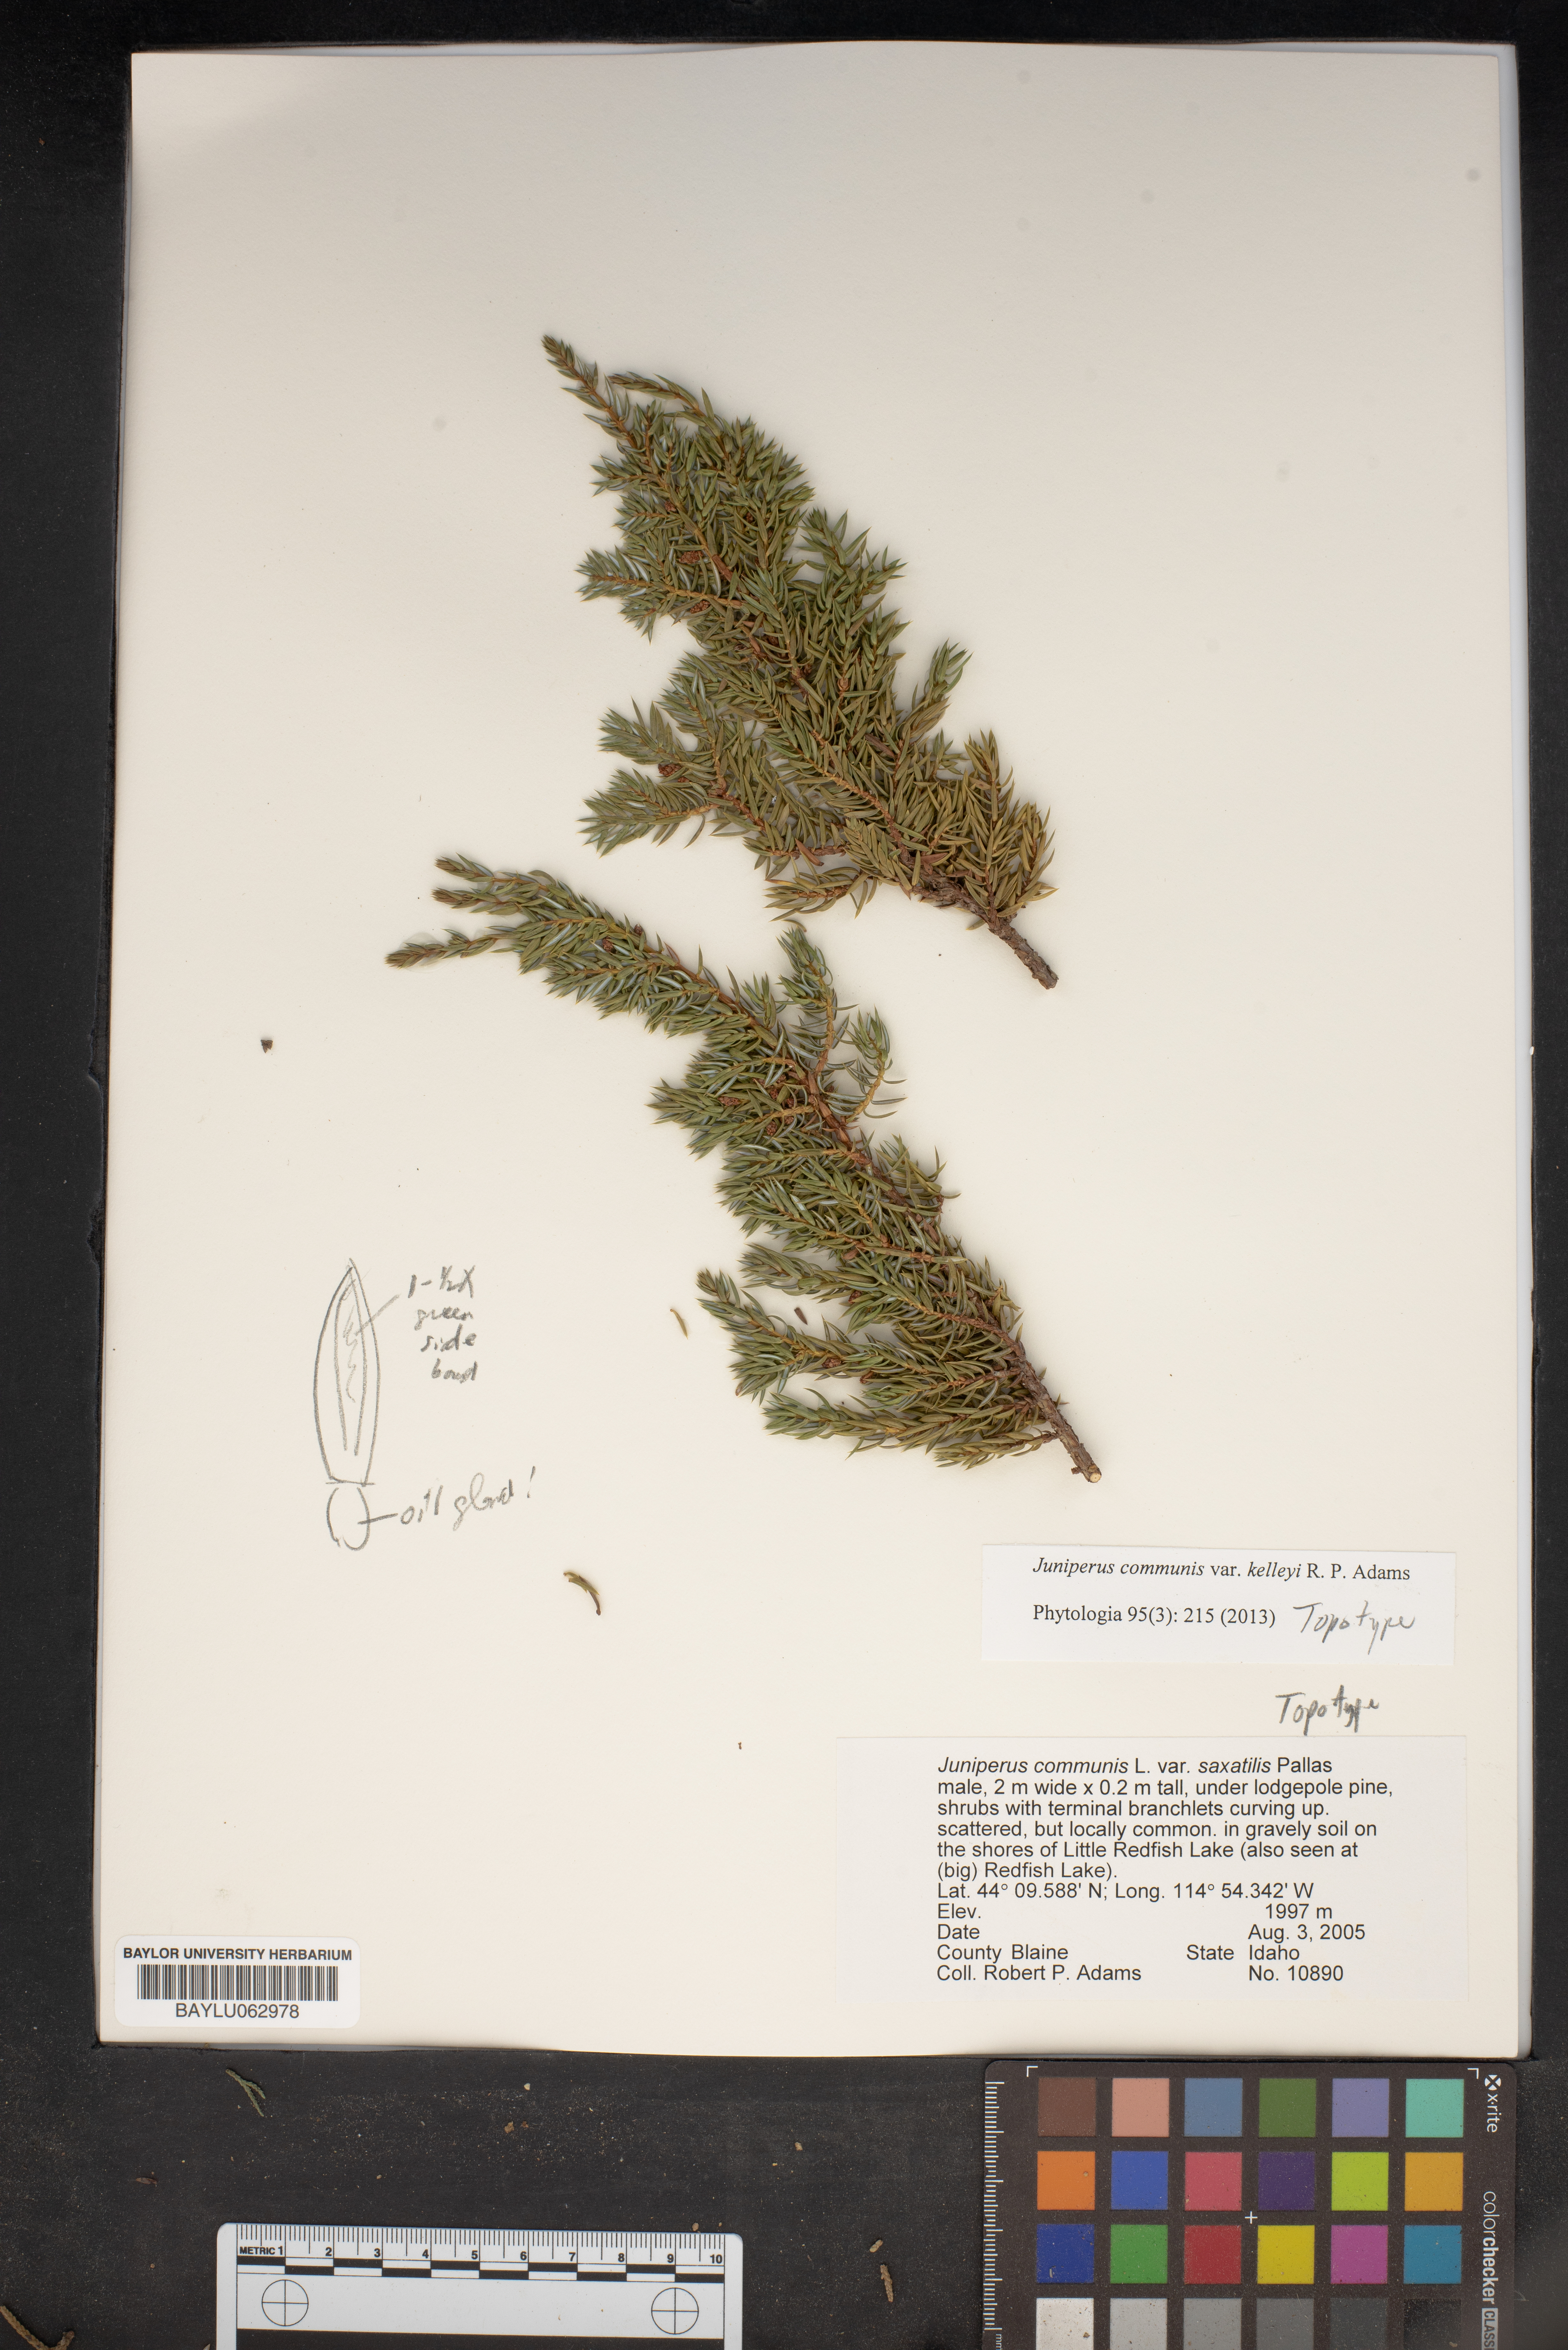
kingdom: Plantae
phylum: Tracheophyta
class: Pinopsida
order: Pinales
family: Cupressaceae
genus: Juniperus
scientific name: Juniperus communis
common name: Common juniper
